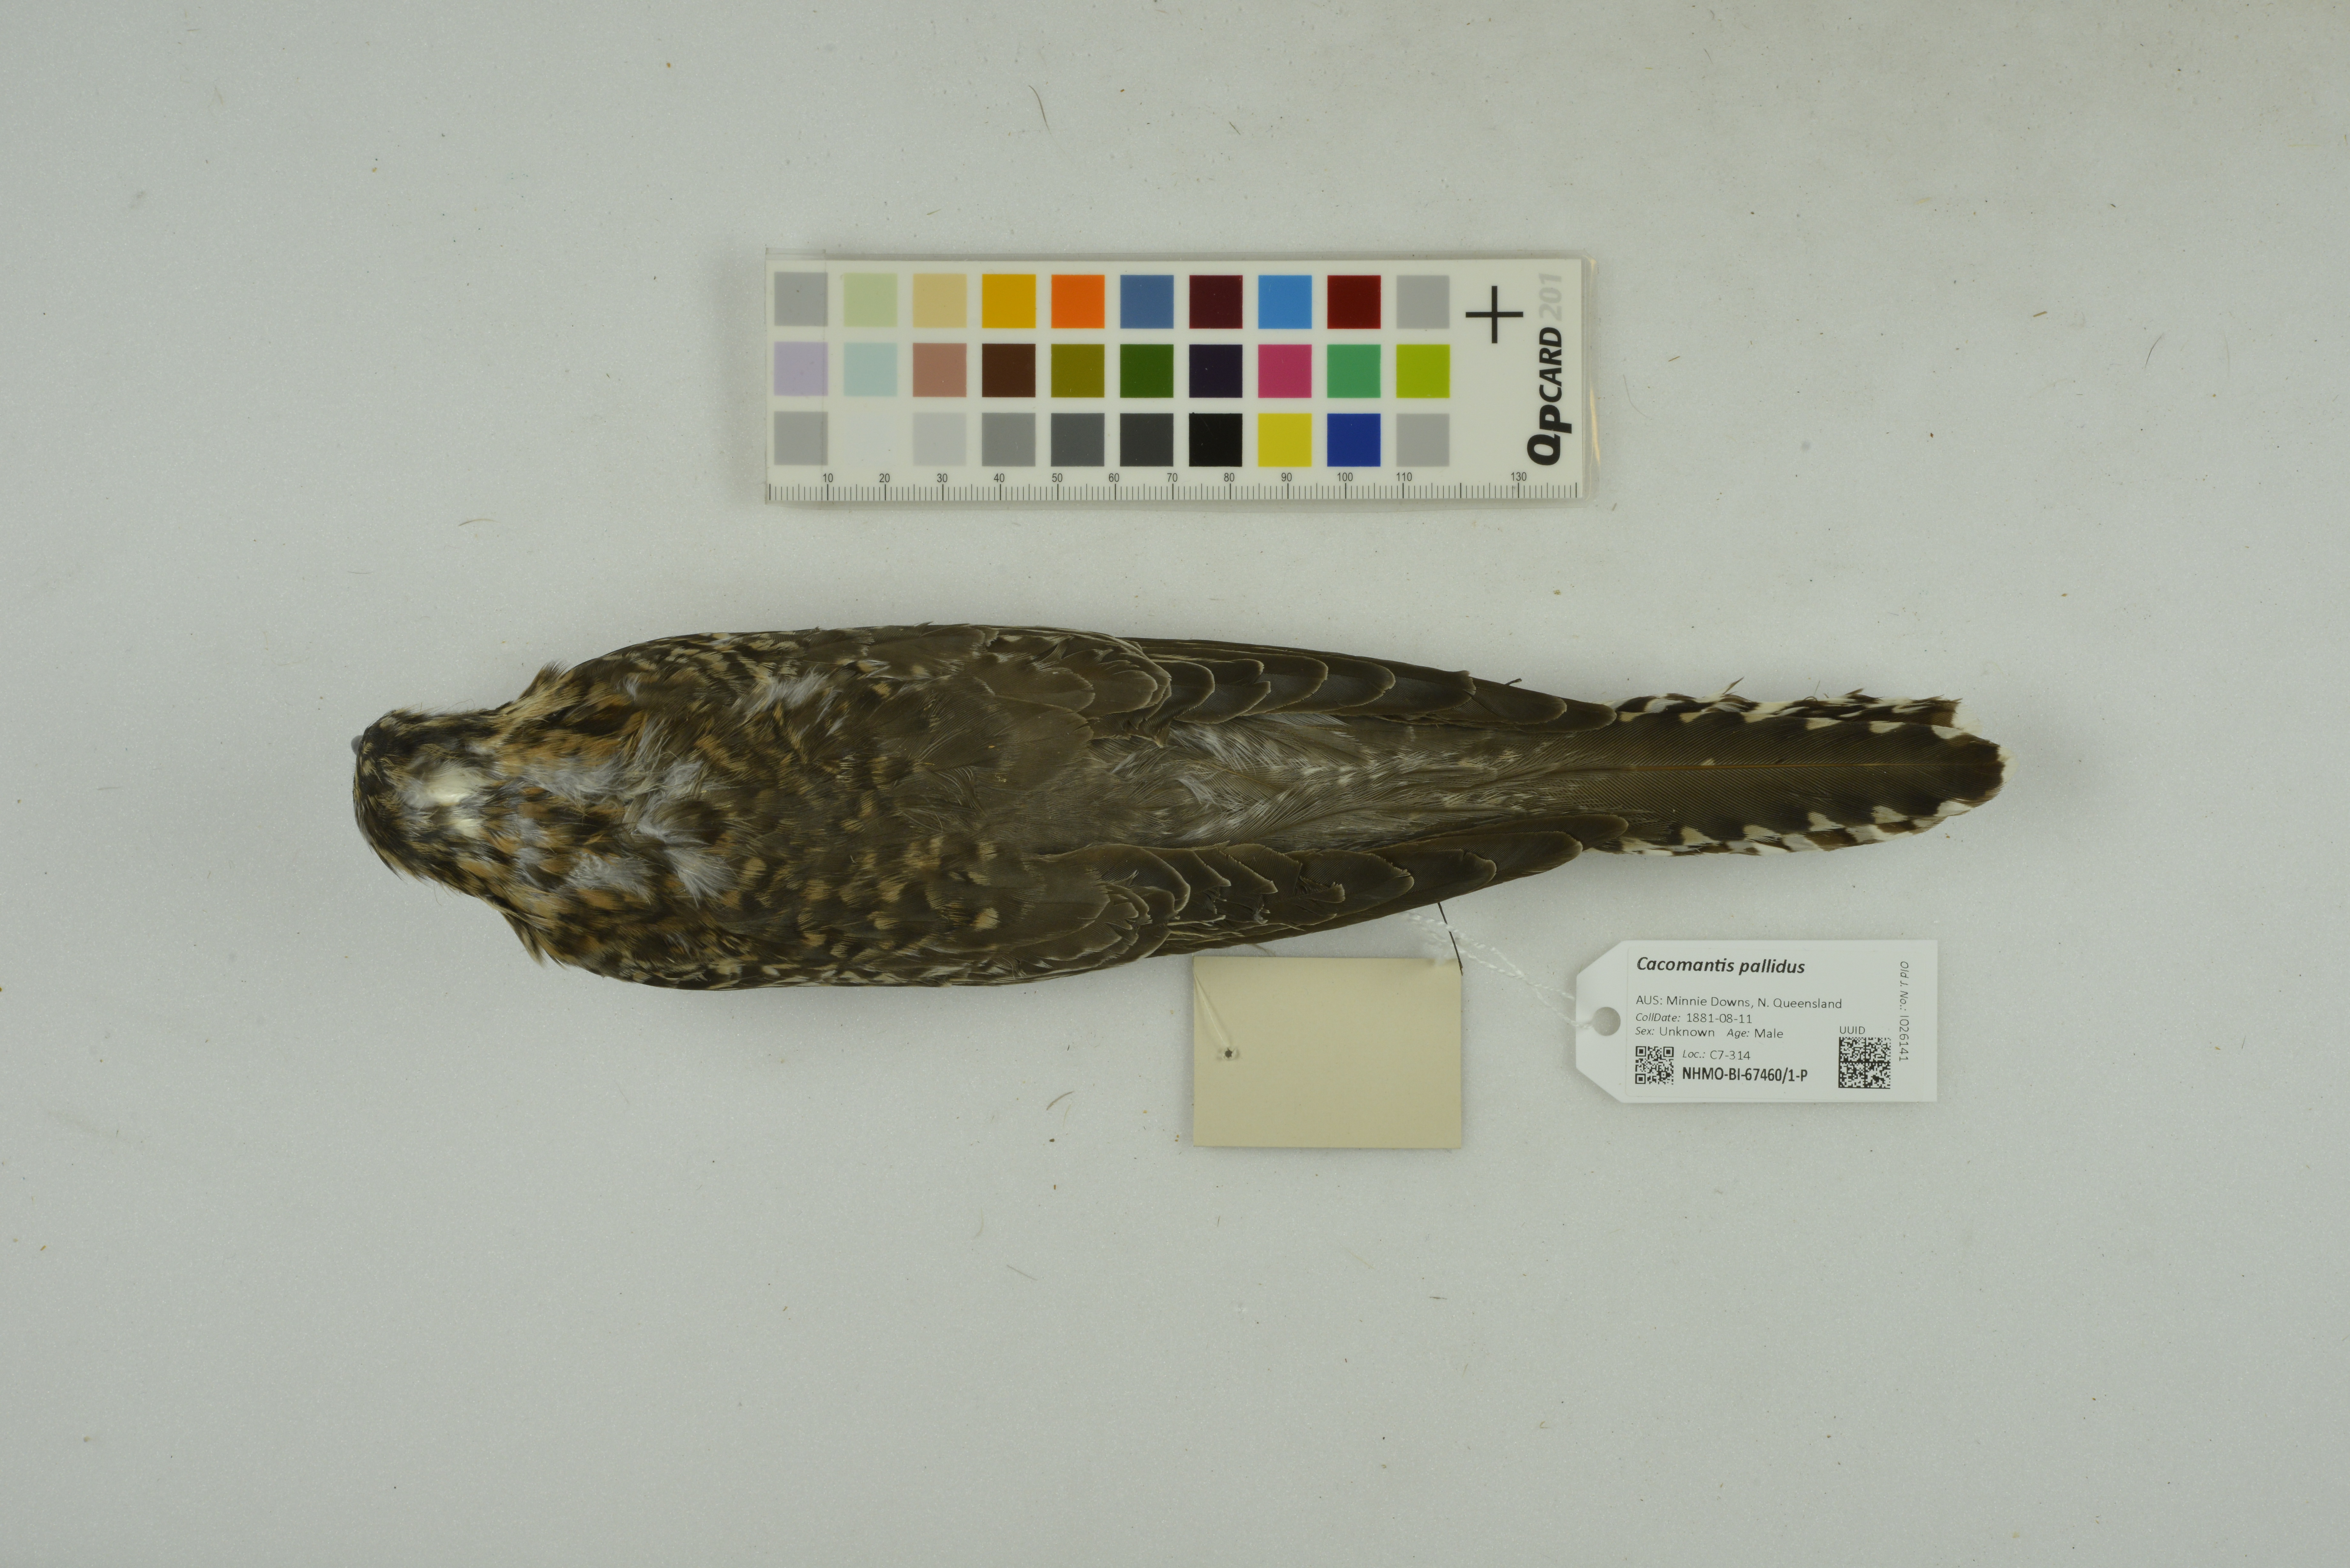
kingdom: Animalia
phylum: Chordata
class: Aves
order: Cuculiformes
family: Cuculidae
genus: Cuculus
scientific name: Cuculus pallidus
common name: Pallid cuckoo
